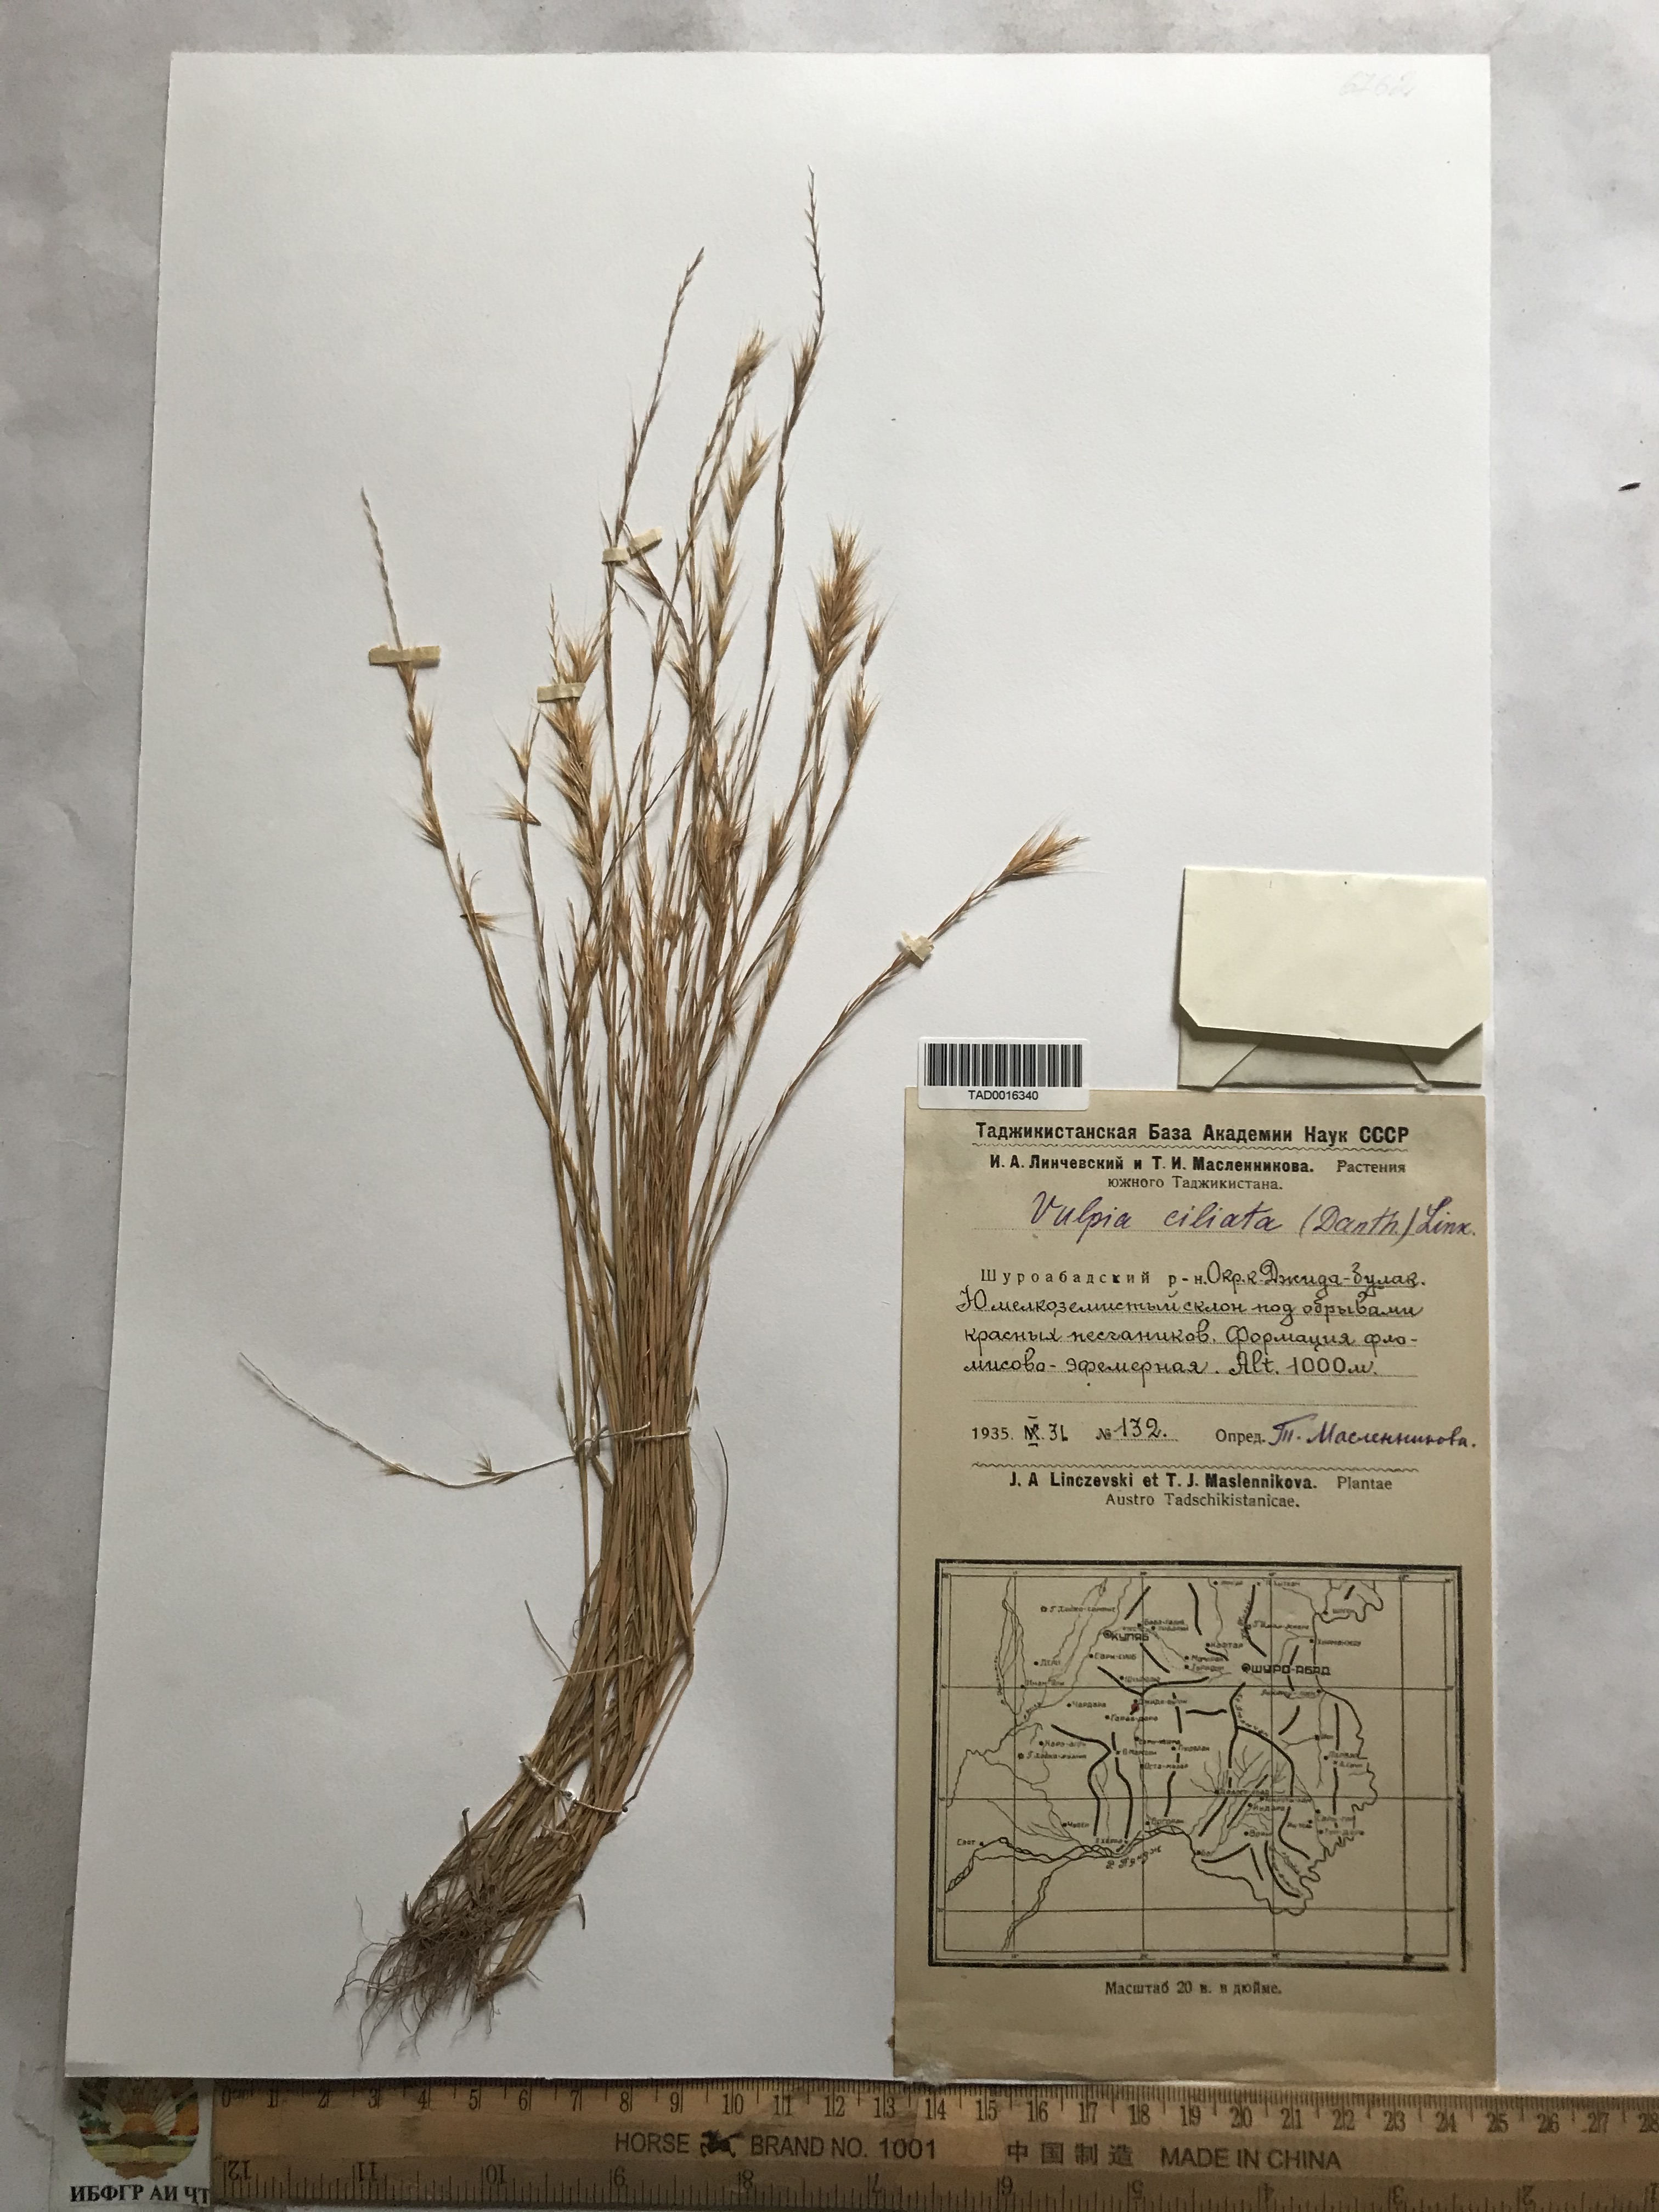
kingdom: Plantae
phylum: Tracheophyta
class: Liliopsida
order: Poales
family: Poaceae
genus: Festuca
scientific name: Festuca ambigua
